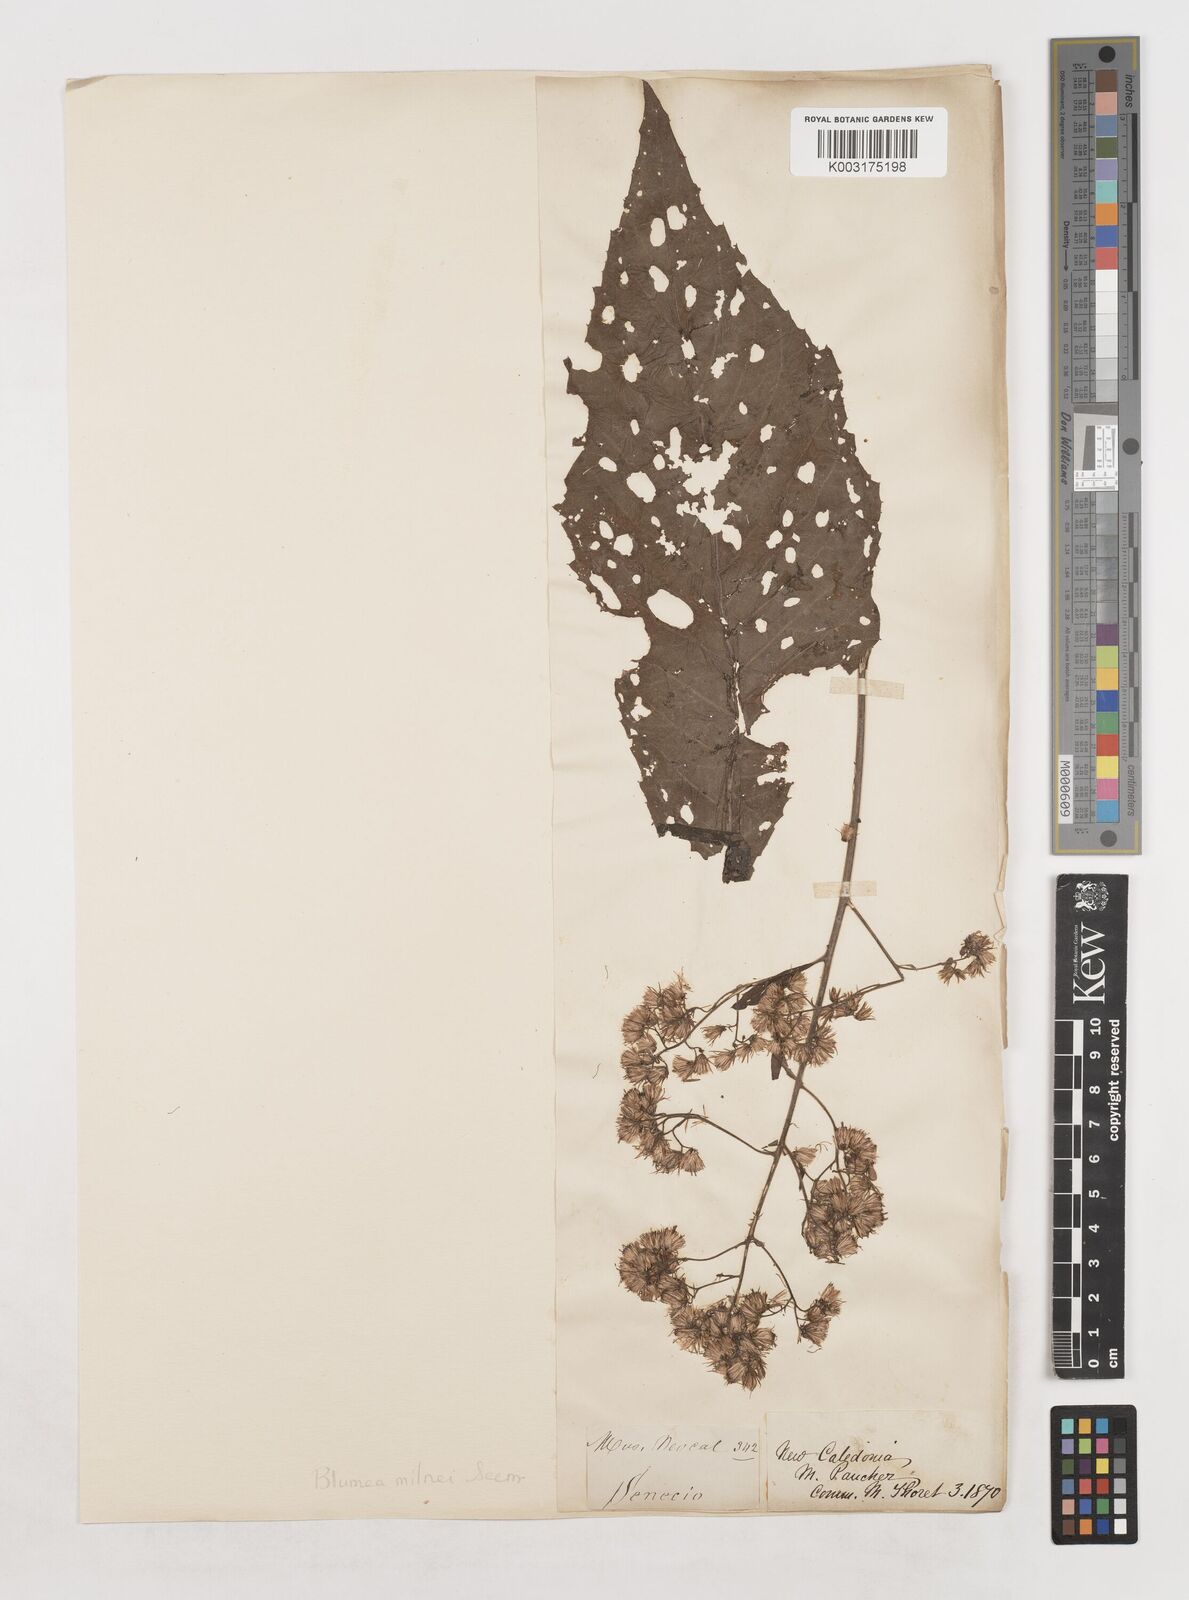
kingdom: Plantae
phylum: Tracheophyta
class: Magnoliopsida
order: Asterales
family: Asteraceae
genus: Blumea
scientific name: Blumea densiflora
